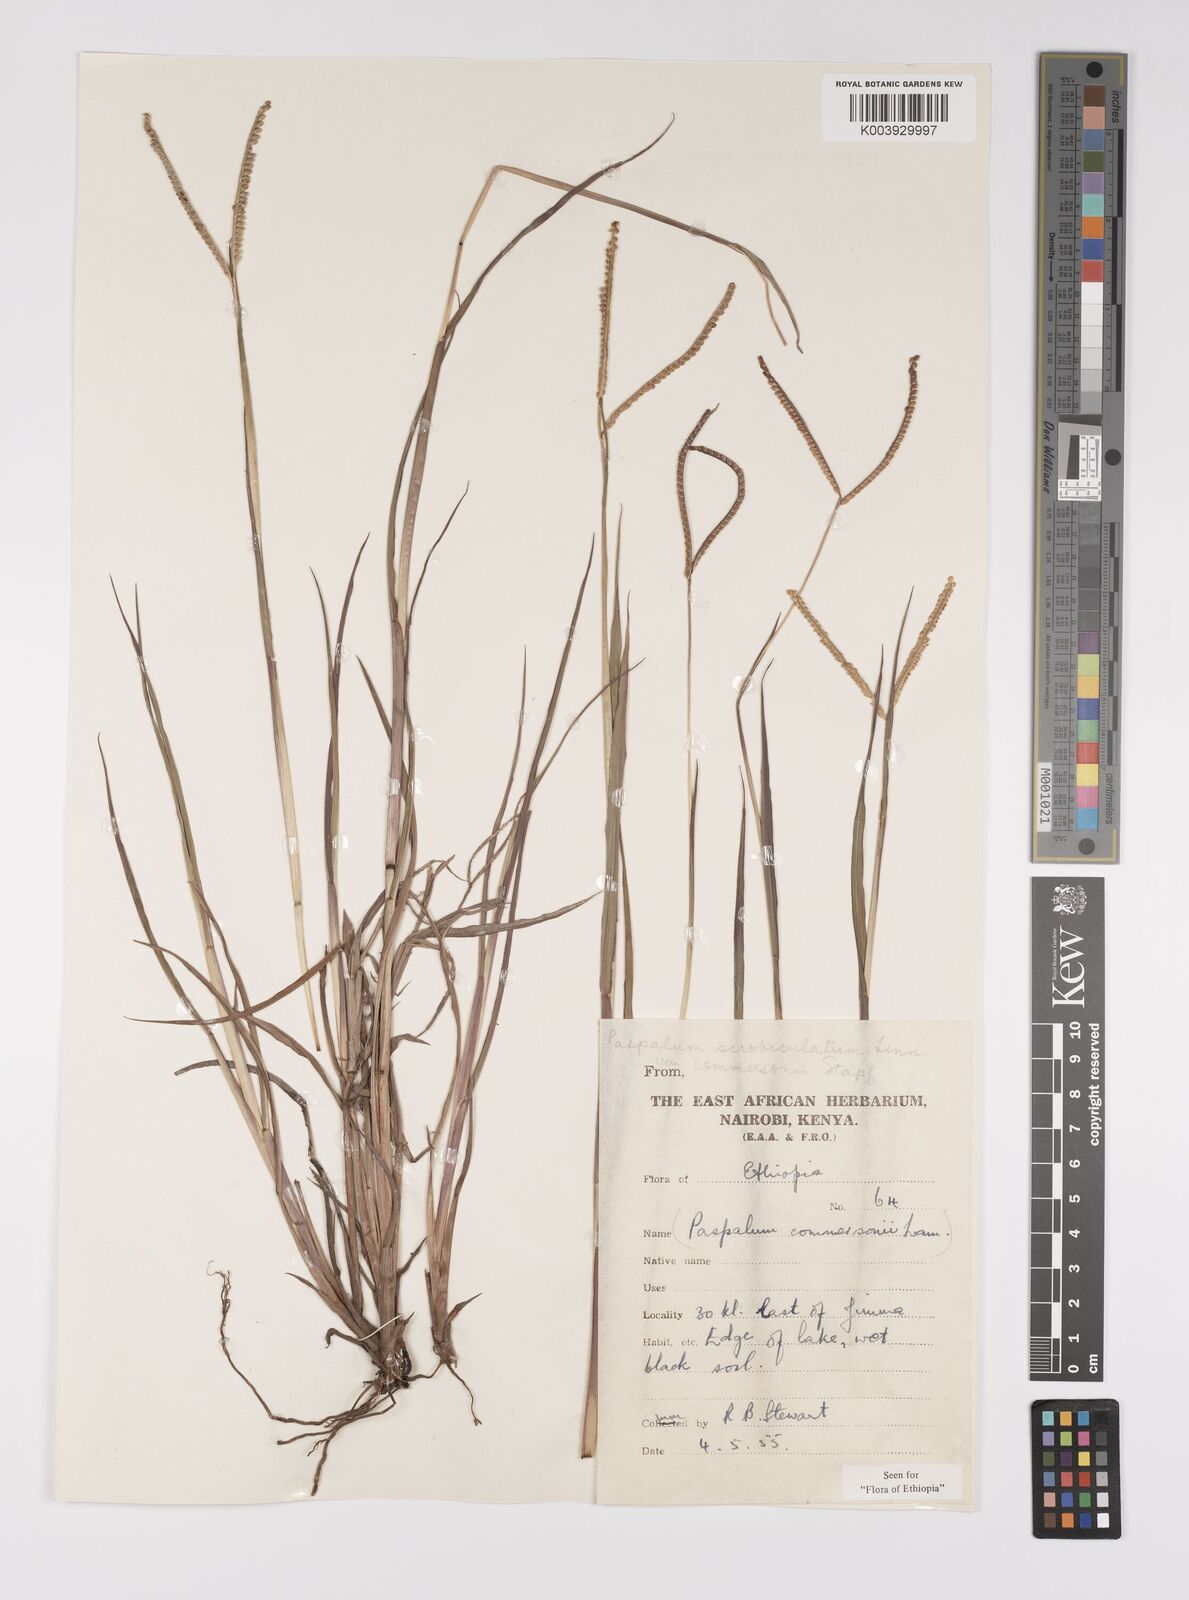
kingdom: Plantae
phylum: Tracheophyta
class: Liliopsida
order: Poales
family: Poaceae
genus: Paspalum
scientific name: Paspalum scrobiculatum
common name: Kodo millet
